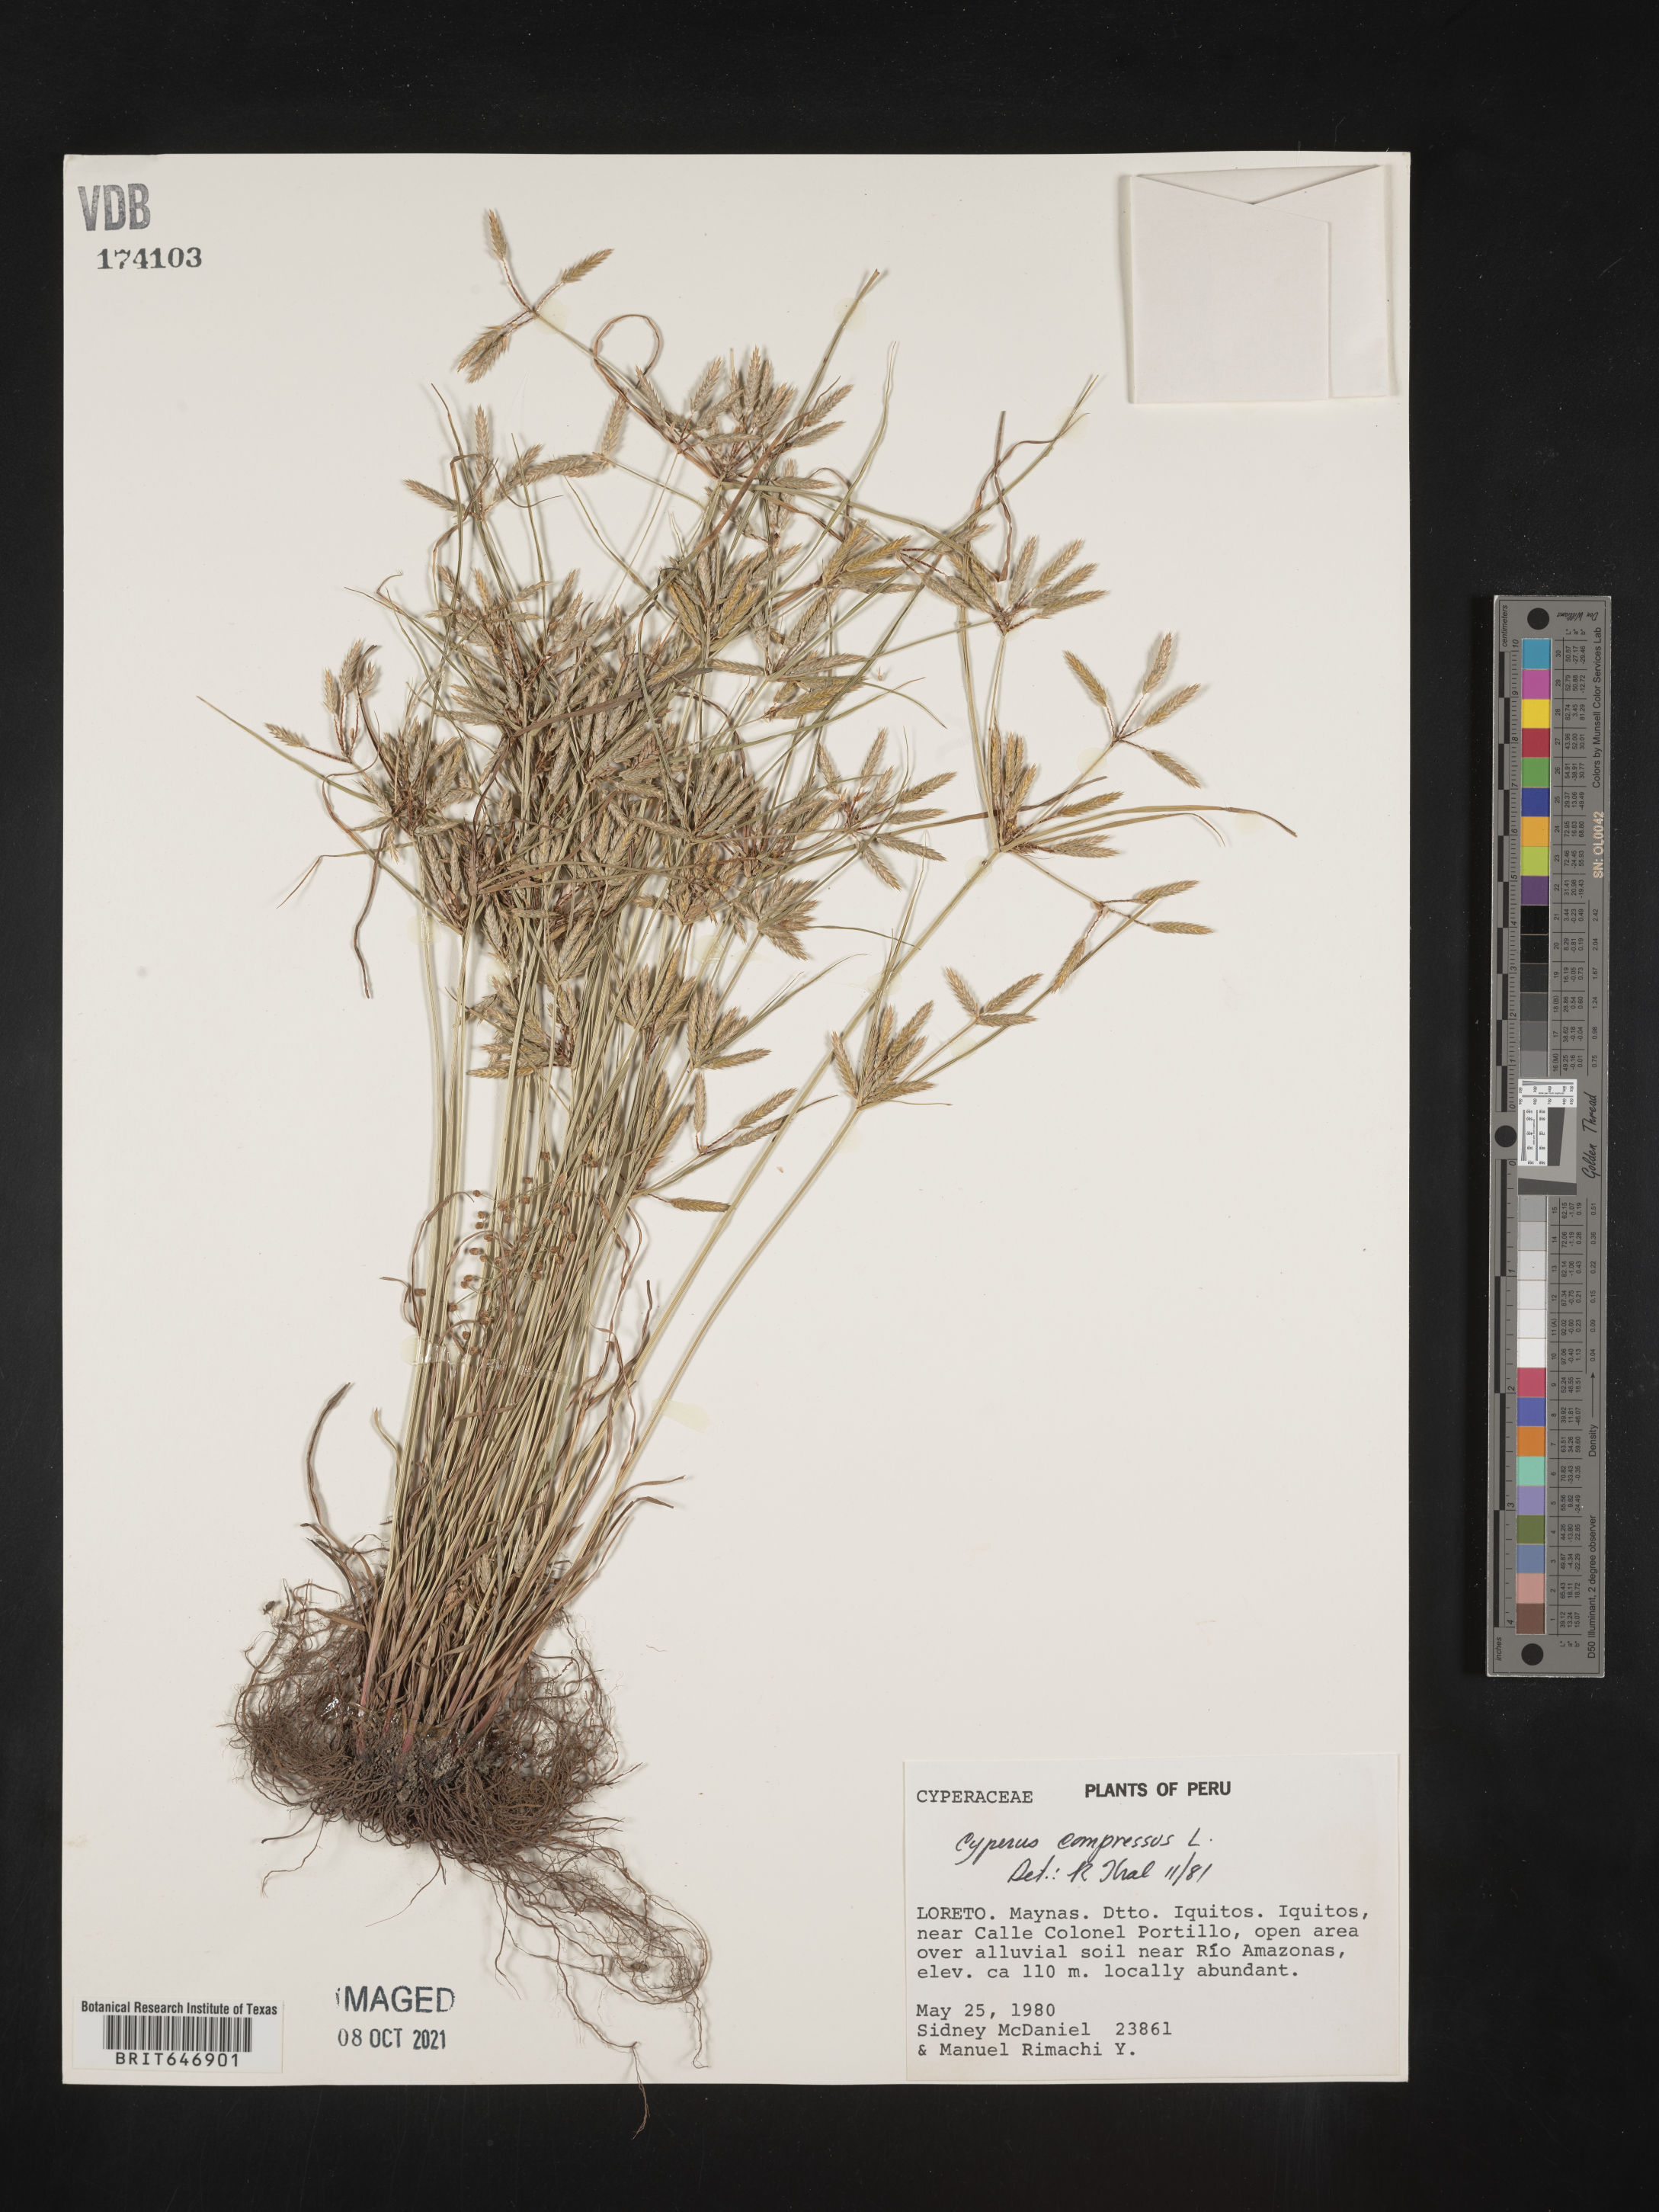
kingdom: Plantae
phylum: Tracheophyta
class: Liliopsida
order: Poales
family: Cyperaceae
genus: Cyperus
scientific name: Cyperus compressus
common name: Poorland flatsedge
